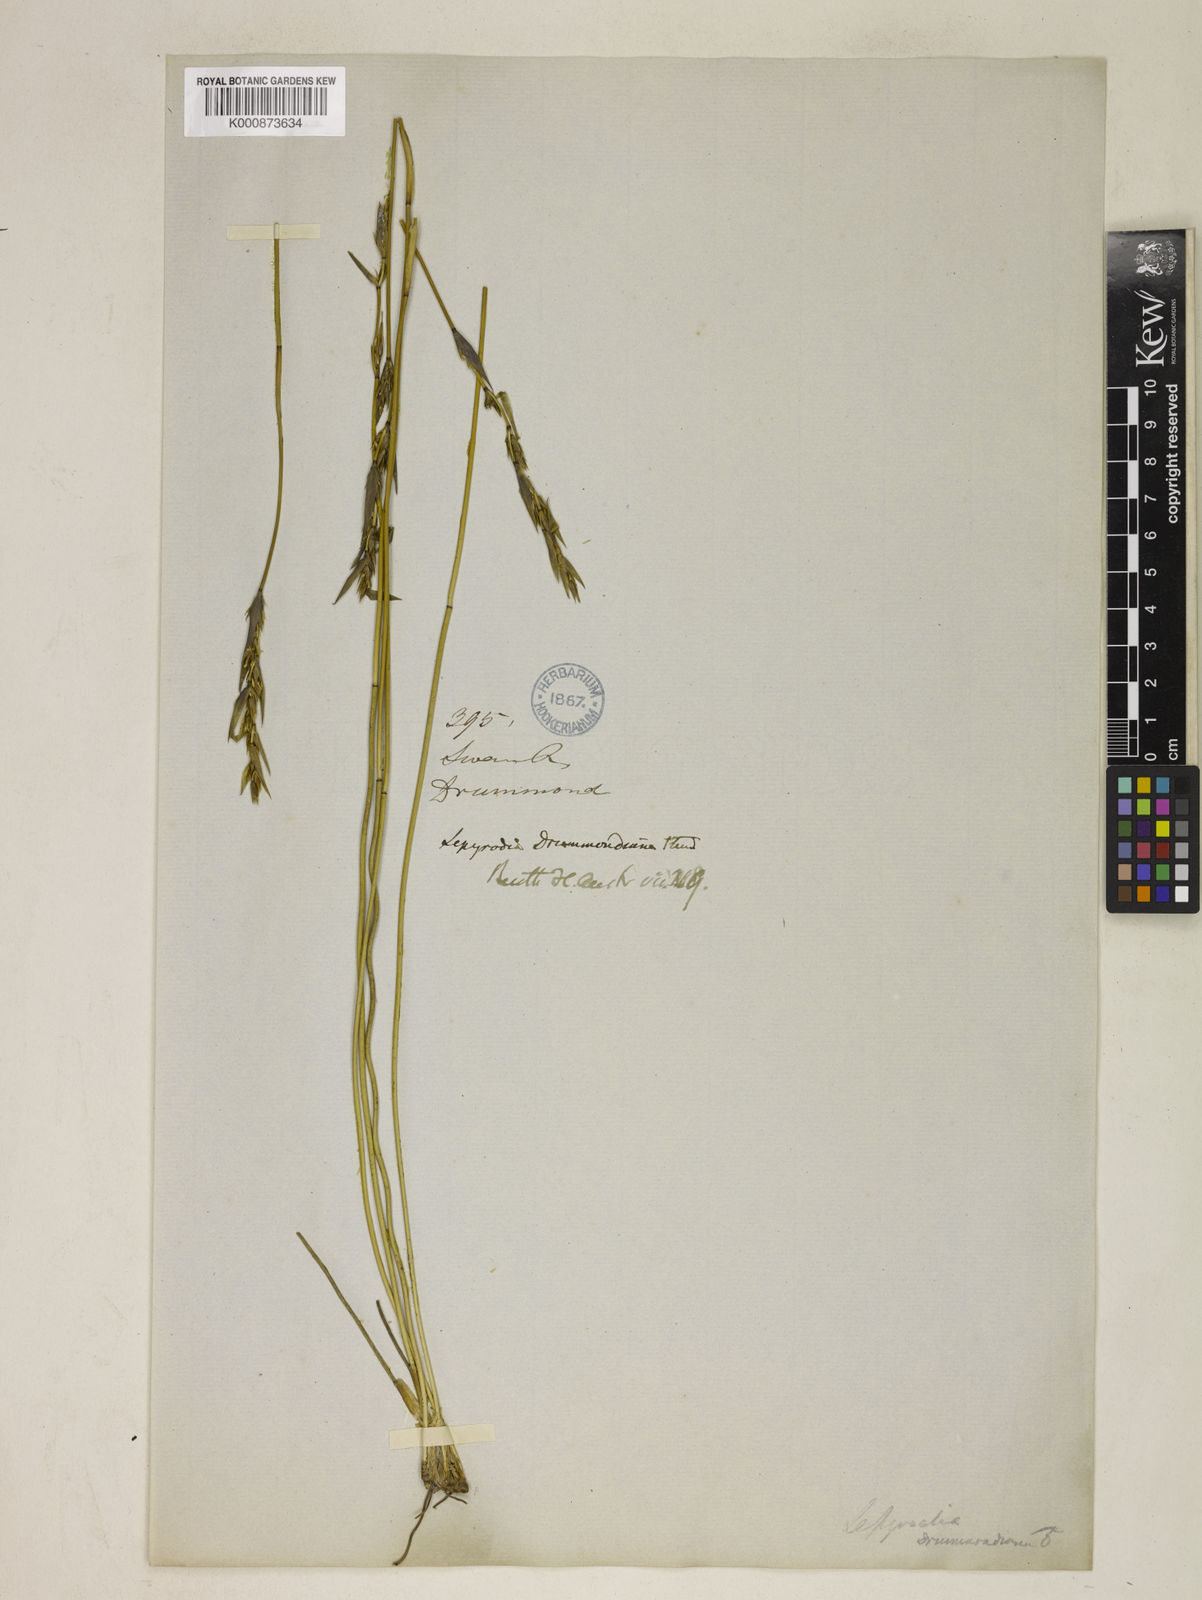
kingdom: Plantae
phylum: Tracheophyta
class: Liliopsida
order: Poales
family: Restionaceae
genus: Lepyrodia
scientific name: Lepyrodia drummondiana
